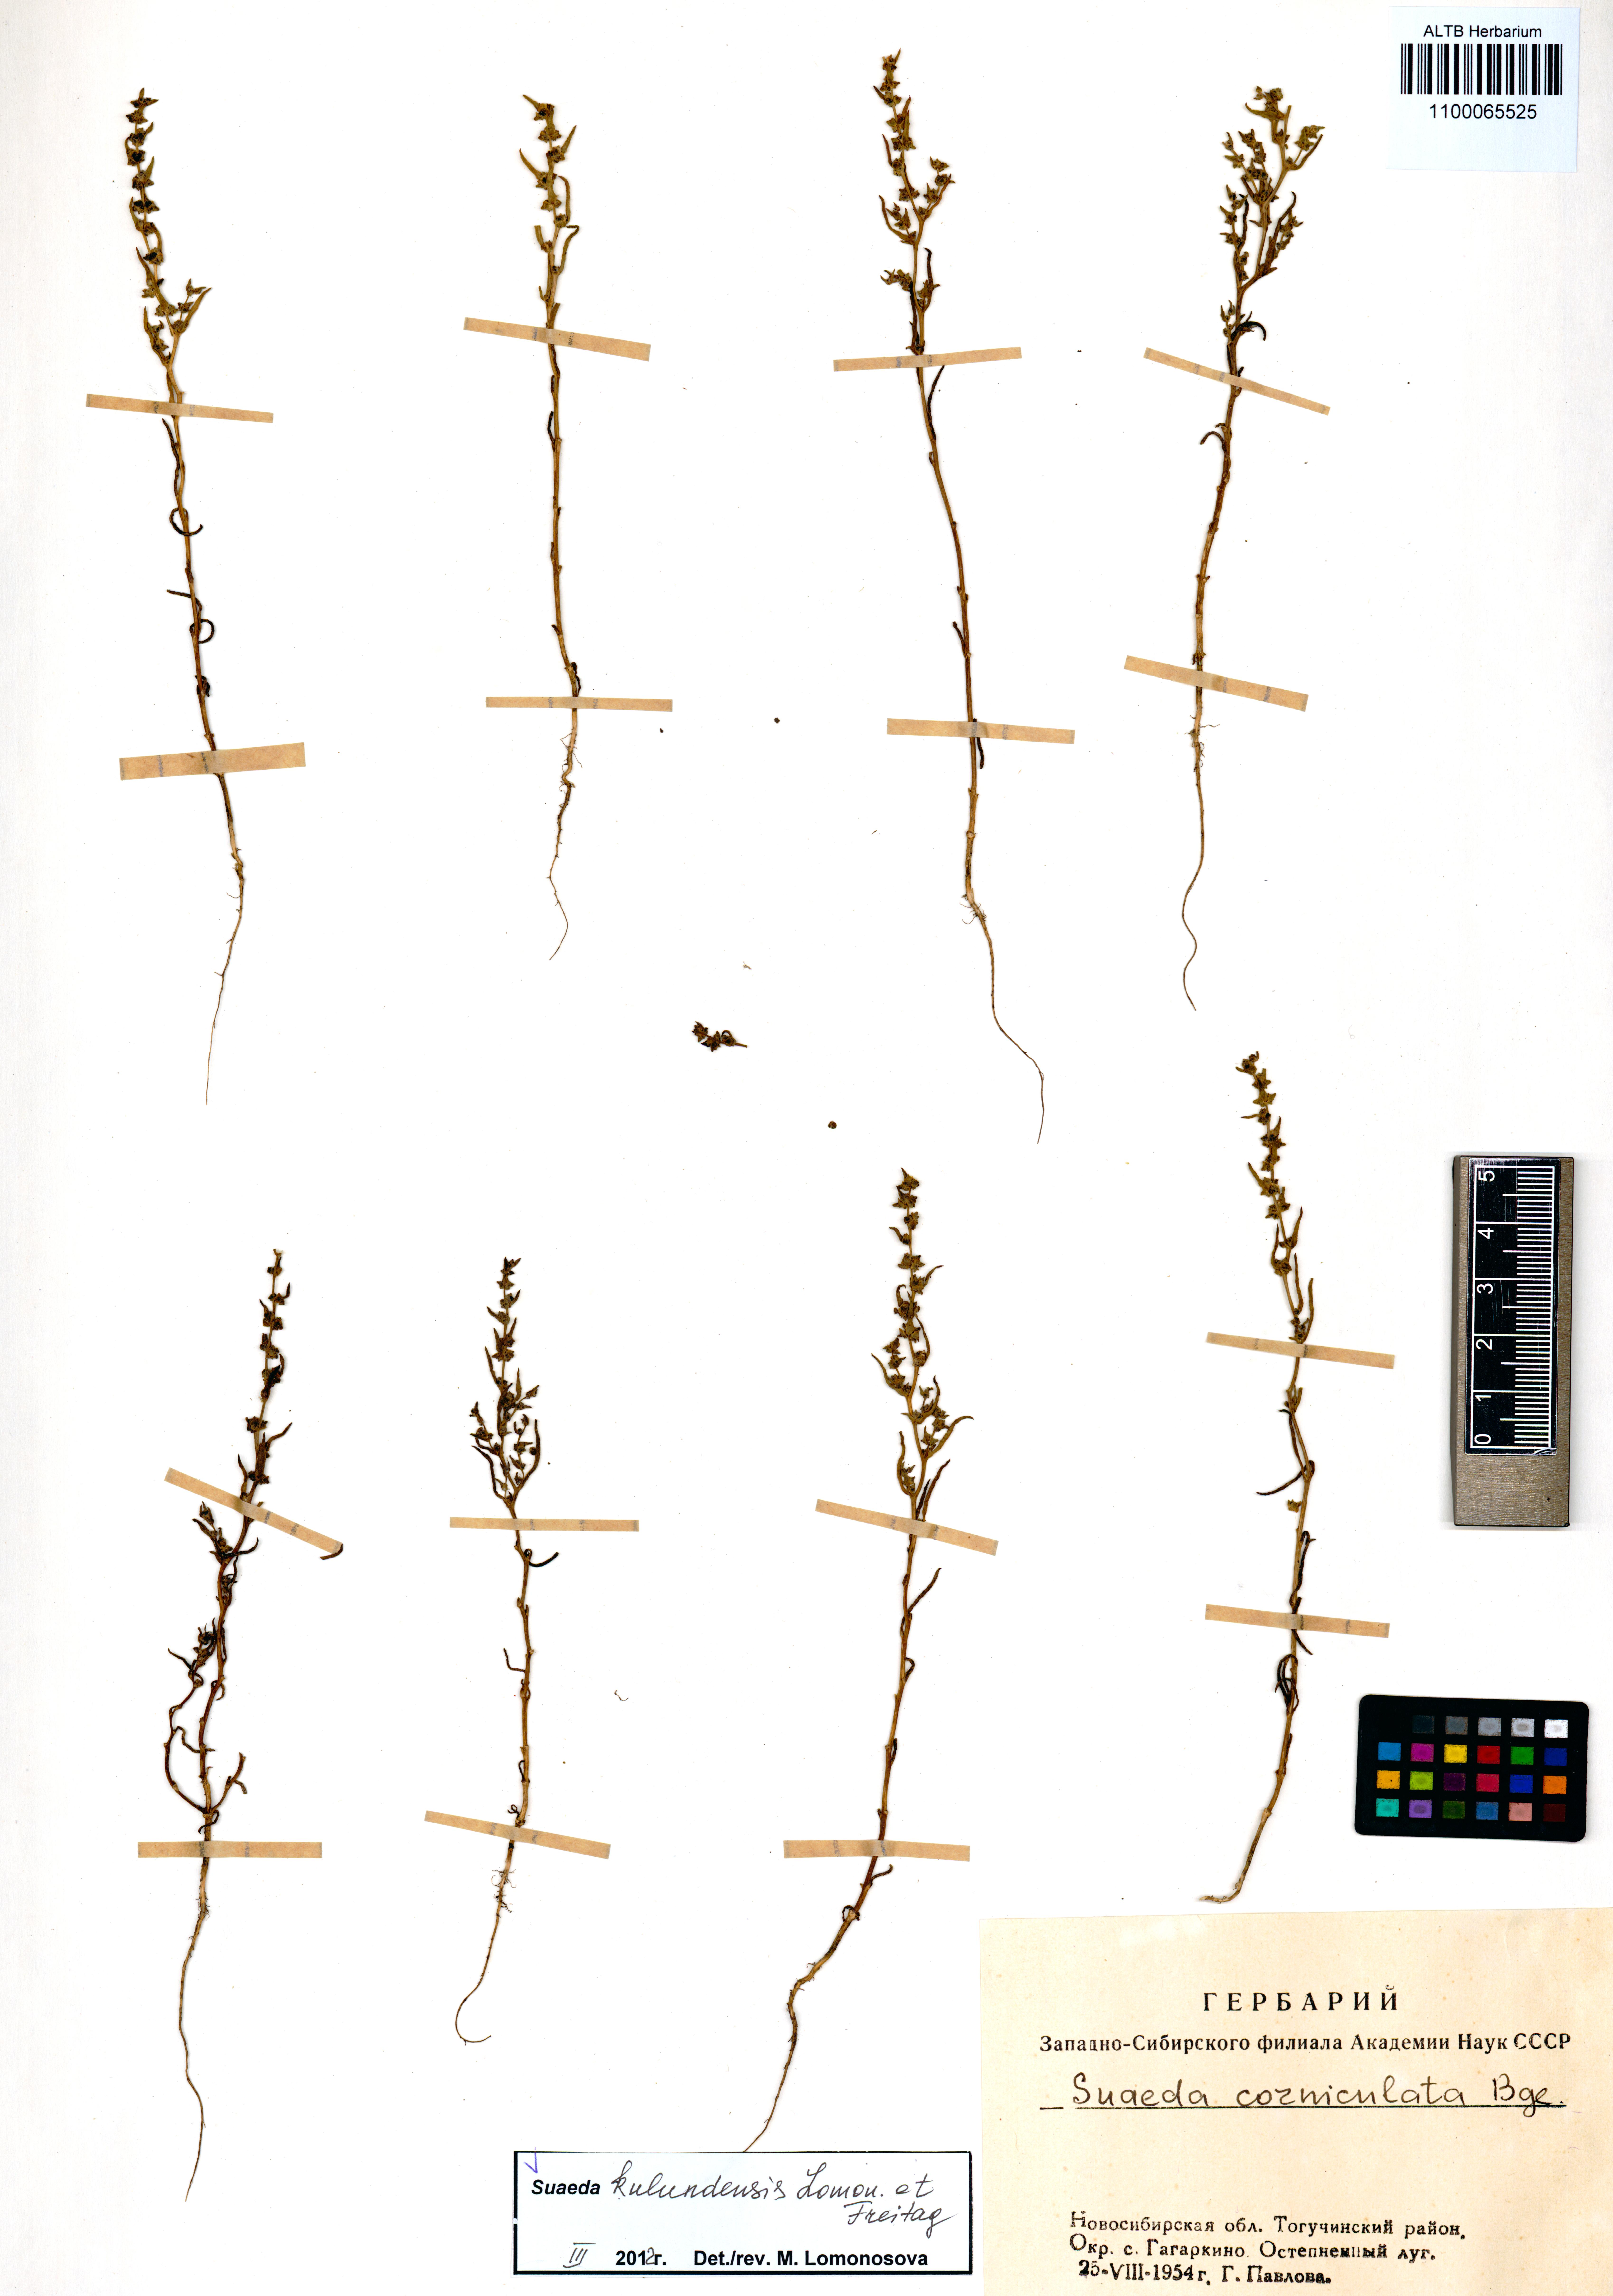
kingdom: Plantae
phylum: Tracheophyta
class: Magnoliopsida
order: Caryophyllales
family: Amaranthaceae
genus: Suaeda
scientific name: Suaeda kulundensis
